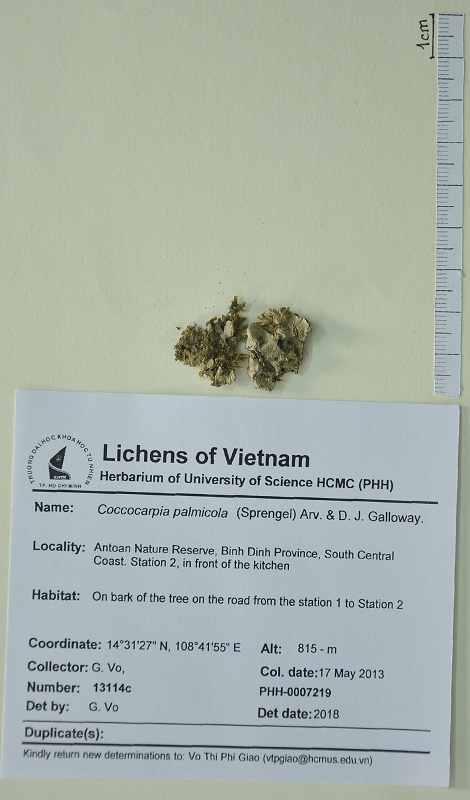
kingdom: Fungi
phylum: Ascomycota
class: Lecanoromycetes
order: Peltigerales
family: Coccocarpiaceae
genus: Coccocarpia
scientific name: Coccocarpia palmicola
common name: Salted shell lichen
